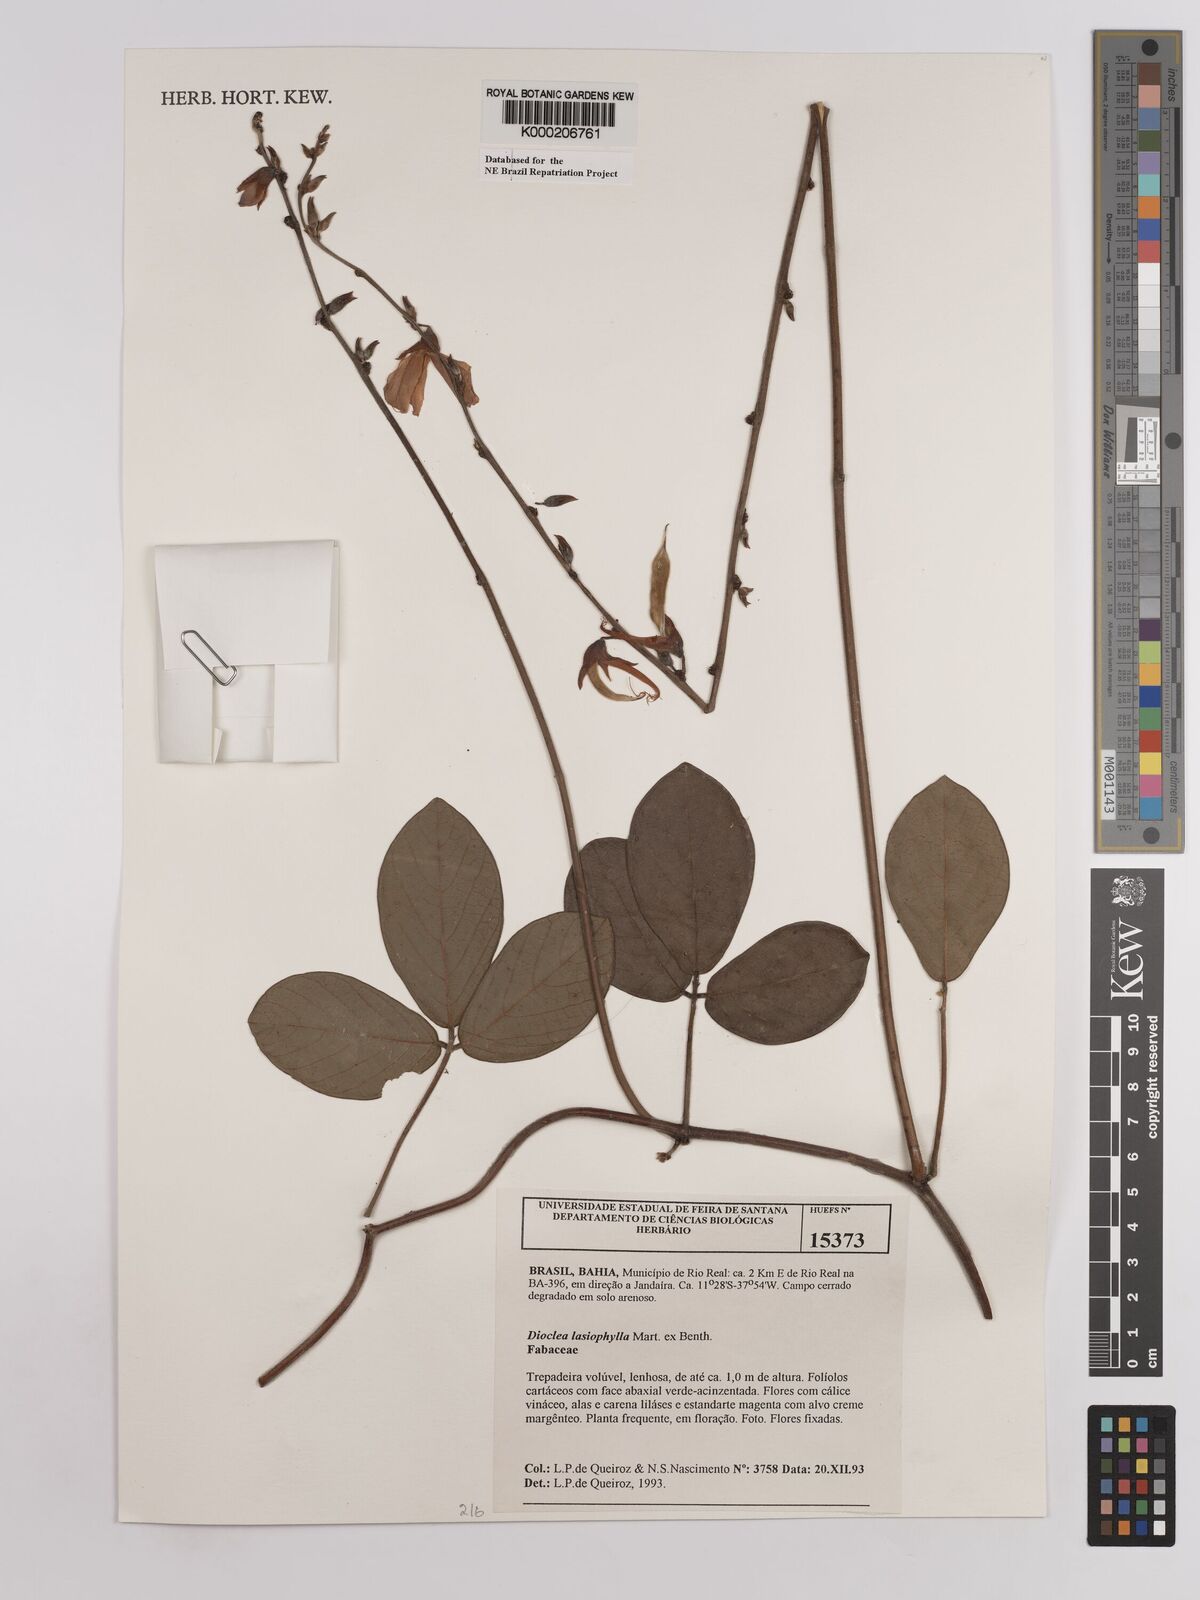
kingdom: Plantae
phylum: Tracheophyta
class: Magnoliopsida
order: Fabales
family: Fabaceae
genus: Dioclea
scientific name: Dioclea lasiophylla
